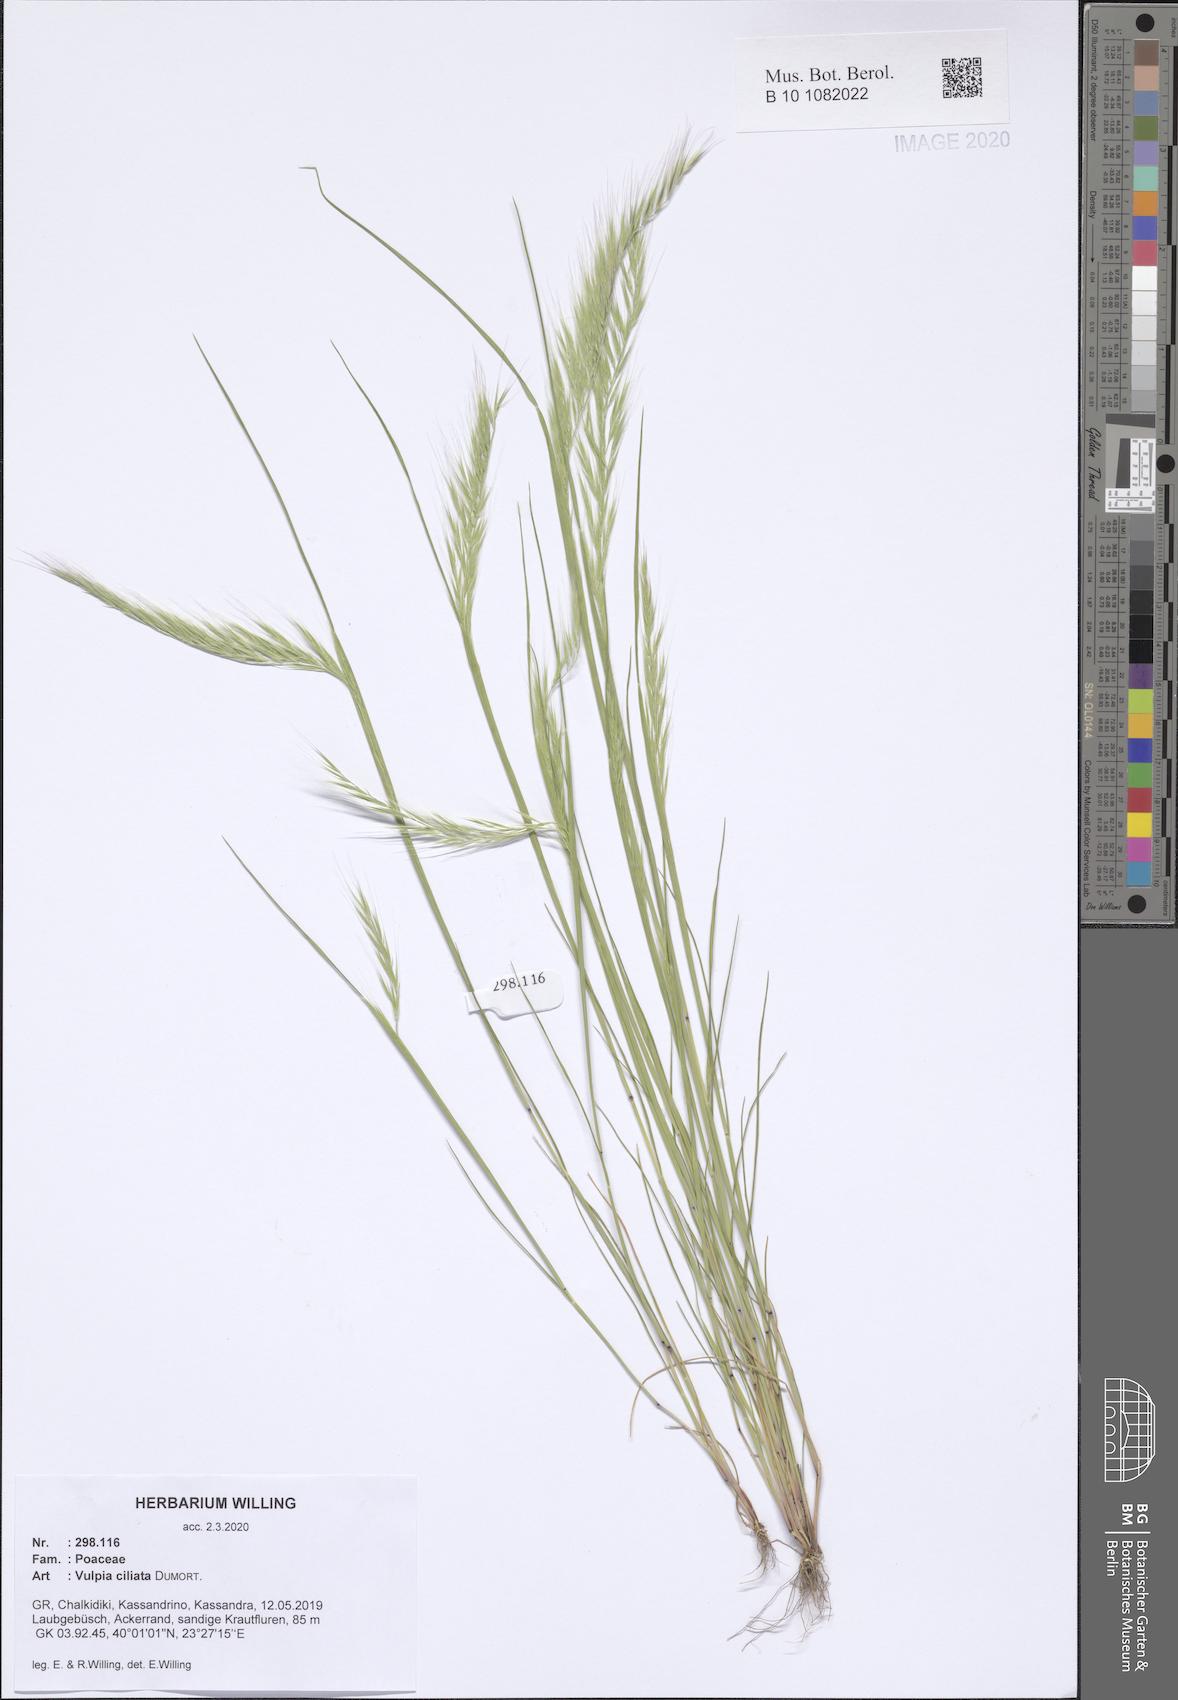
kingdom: Plantae
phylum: Tracheophyta
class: Liliopsida
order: Poales
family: Poaceae
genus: Festuca
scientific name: Festuca ambigua
